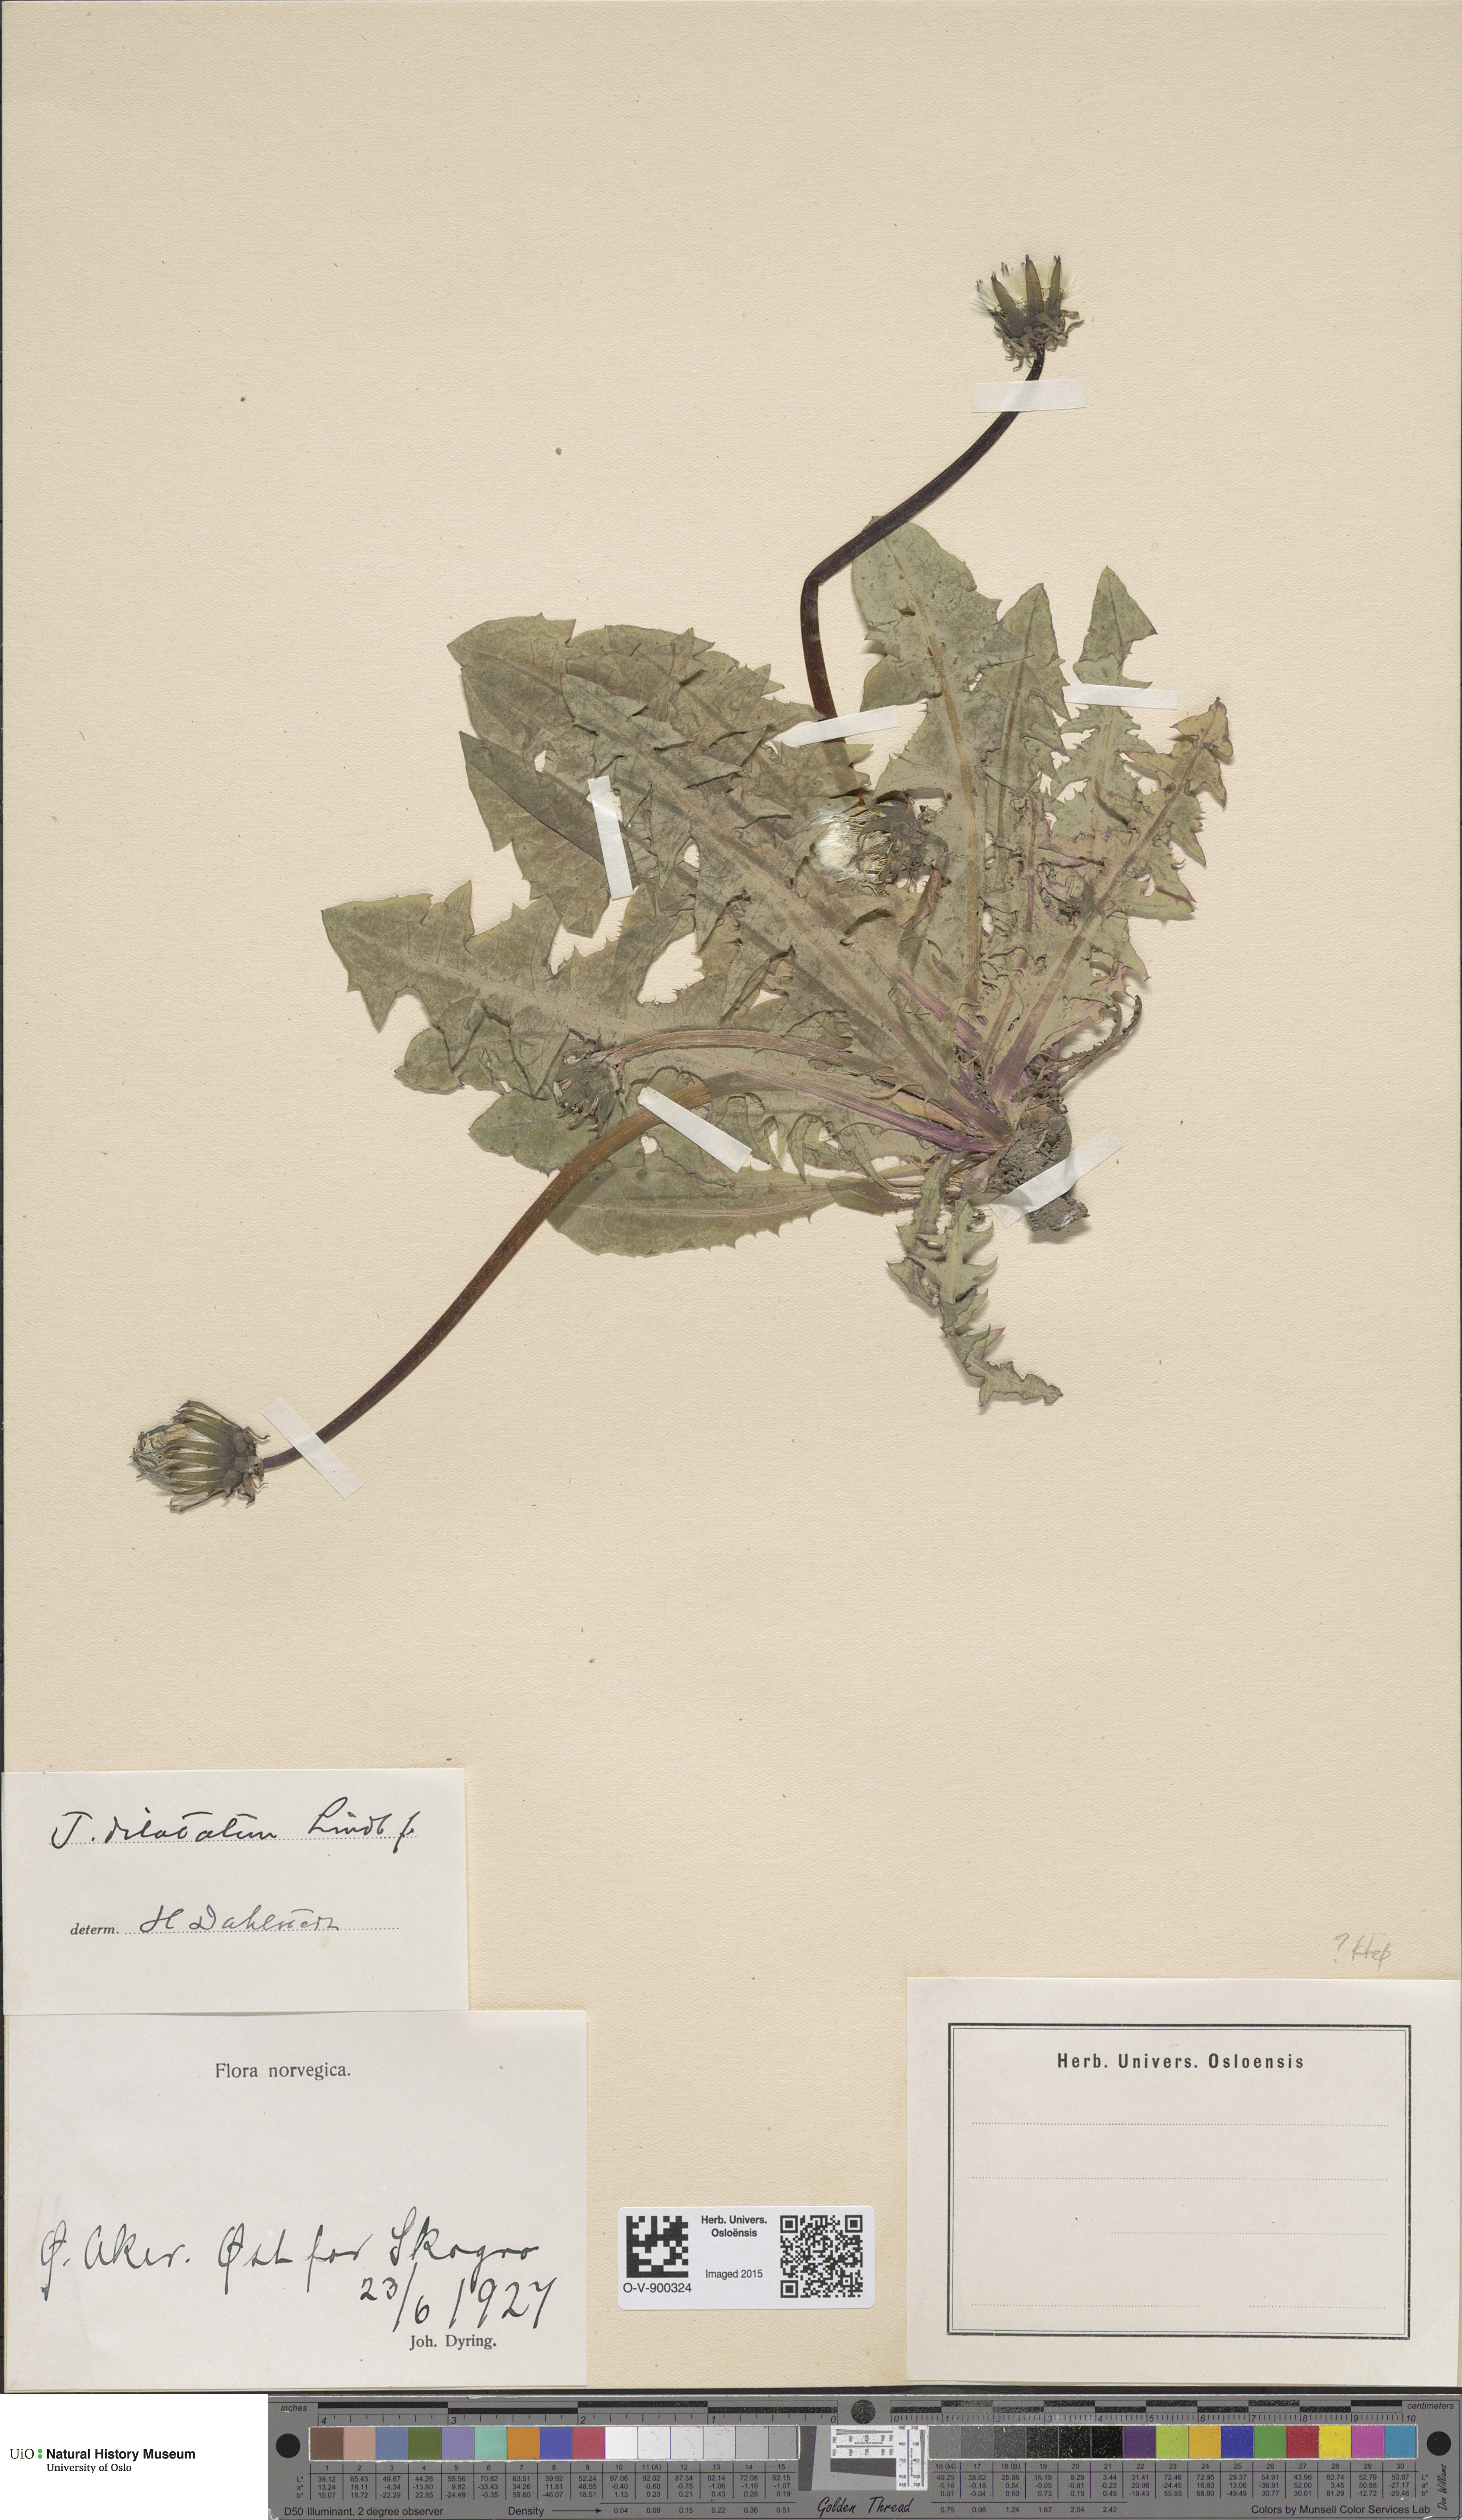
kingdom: Plantae
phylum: Tracheophyta
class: Magnoliopsida
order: Asterales
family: Asteraceae
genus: Taraxacum
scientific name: Taraxacum dilatatum
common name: Grassland dandelion
